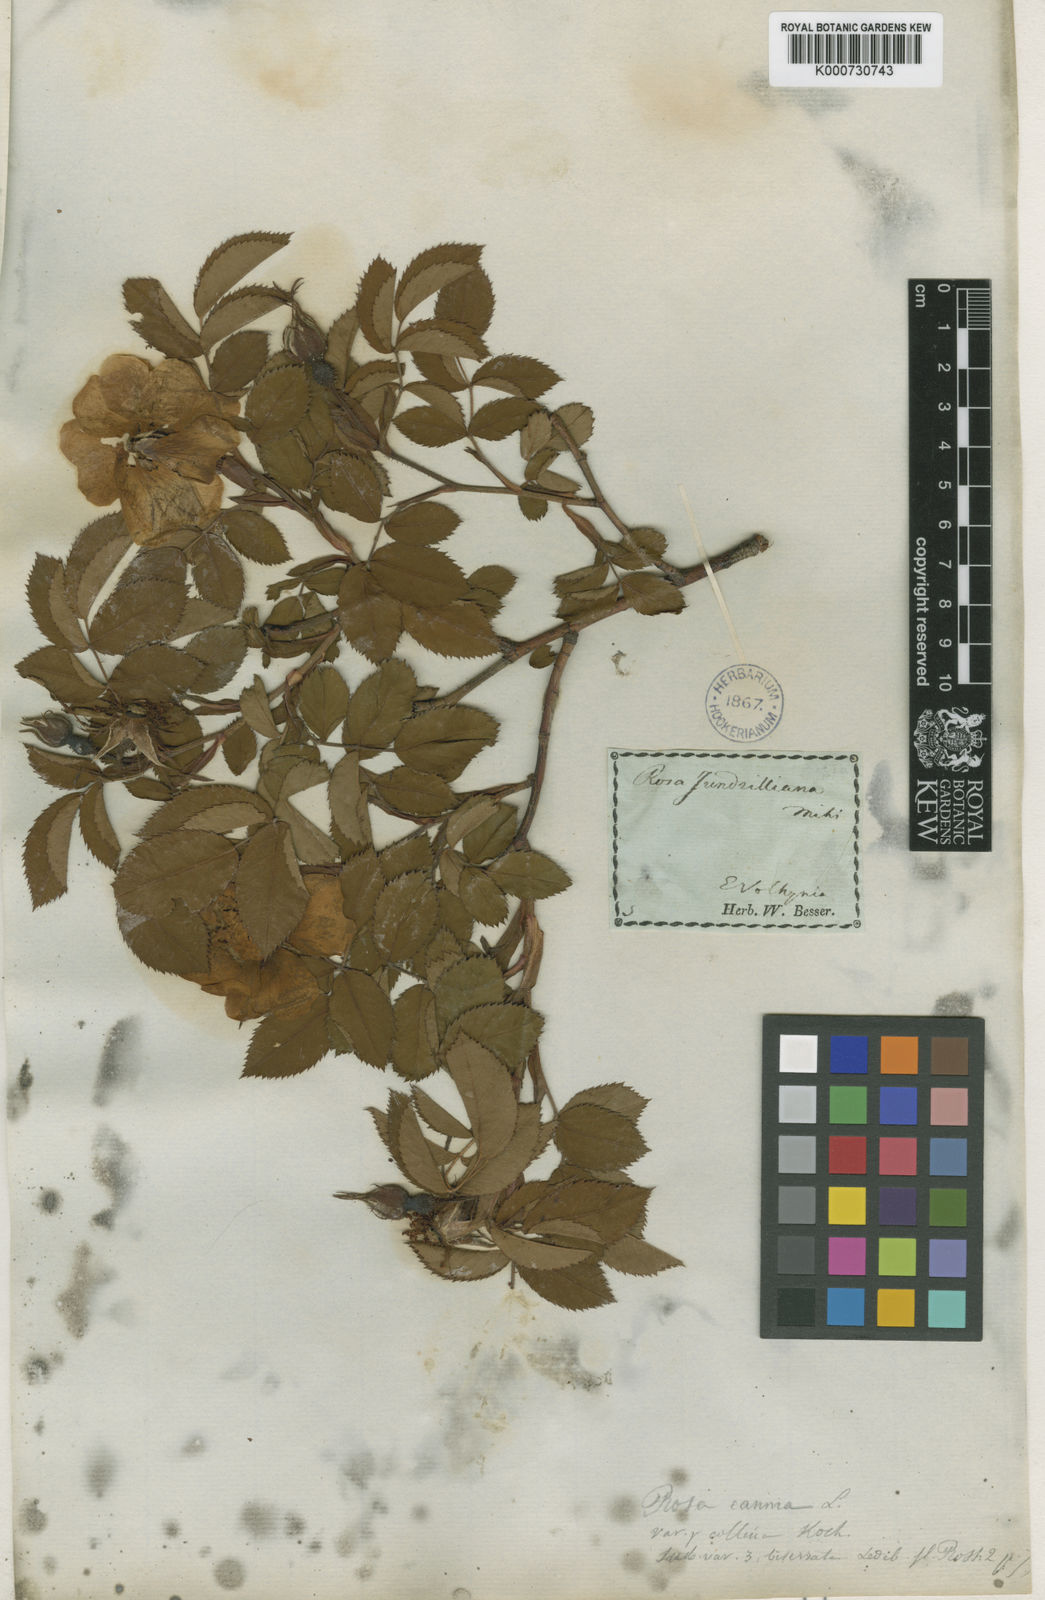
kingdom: Plantae
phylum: Tracheophyta
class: Magnoliopsida
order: Rosales
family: Rosaceae
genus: Rosa
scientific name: Rosa marginata
